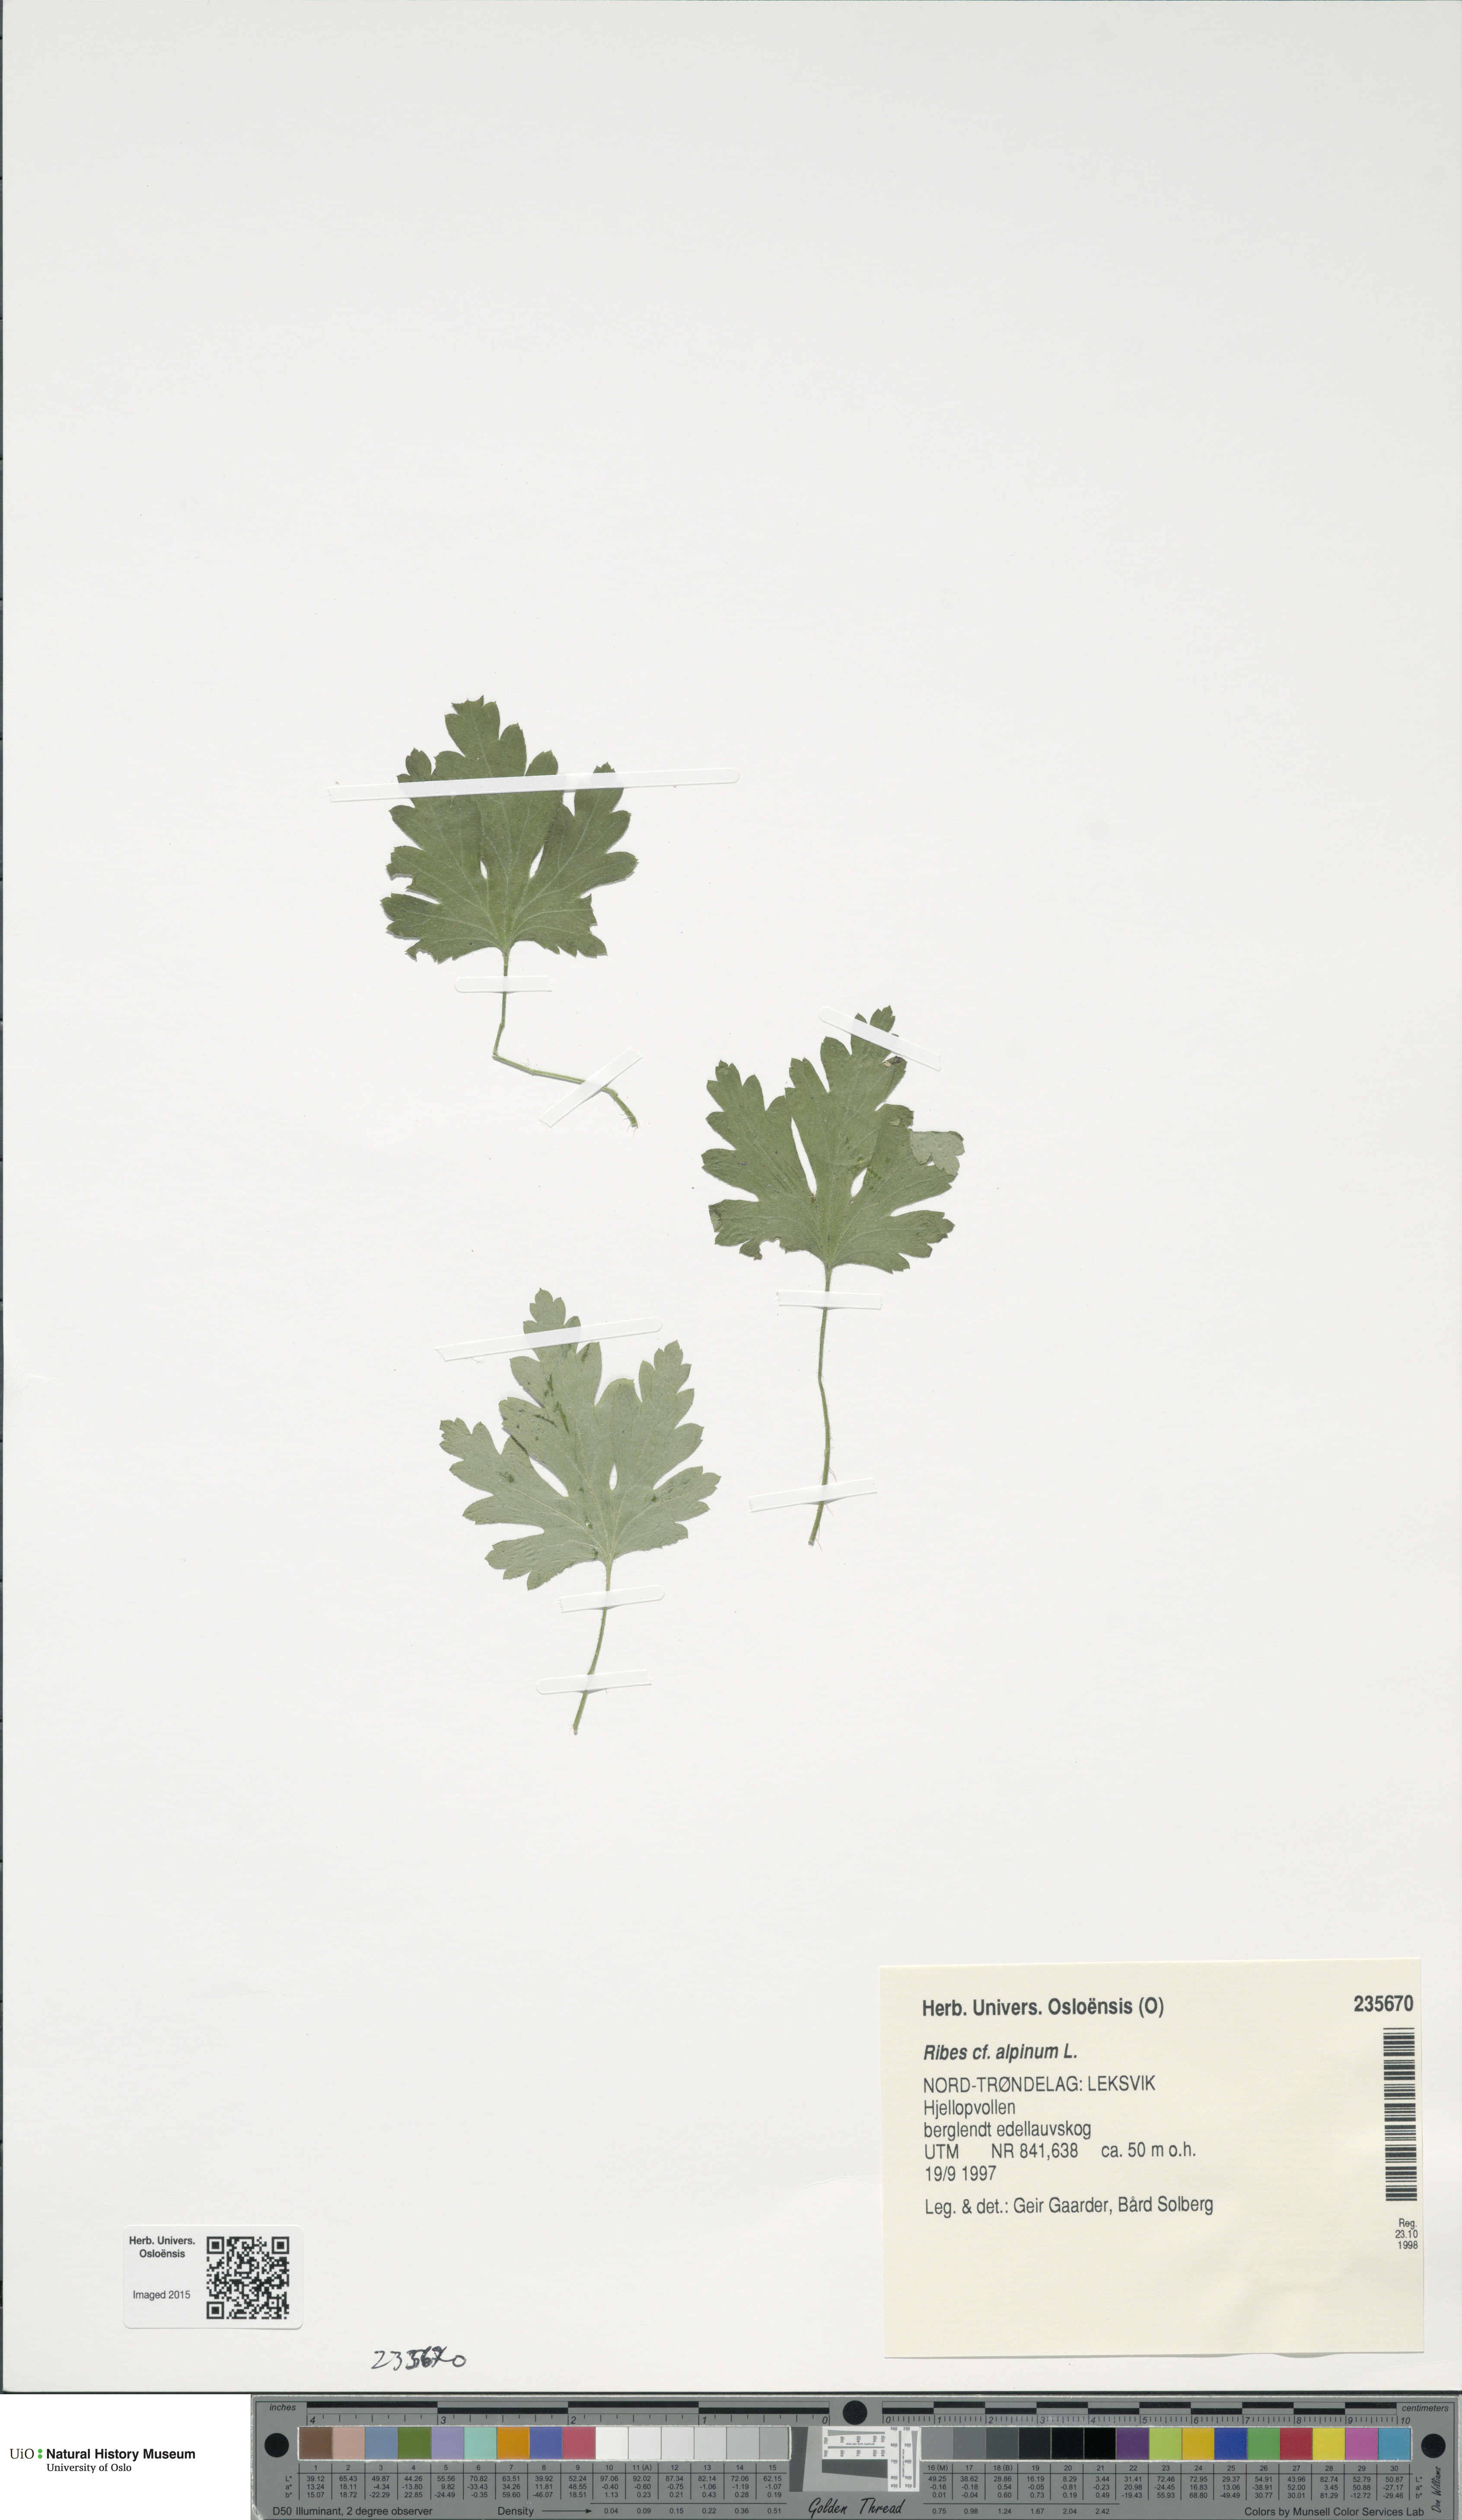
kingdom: Plantae
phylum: Tracheophyta
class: Magnoliopsida
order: Saxifragales
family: Grossulariaceae
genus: Ribes
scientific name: Ribes alpinum
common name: Alpine currant
